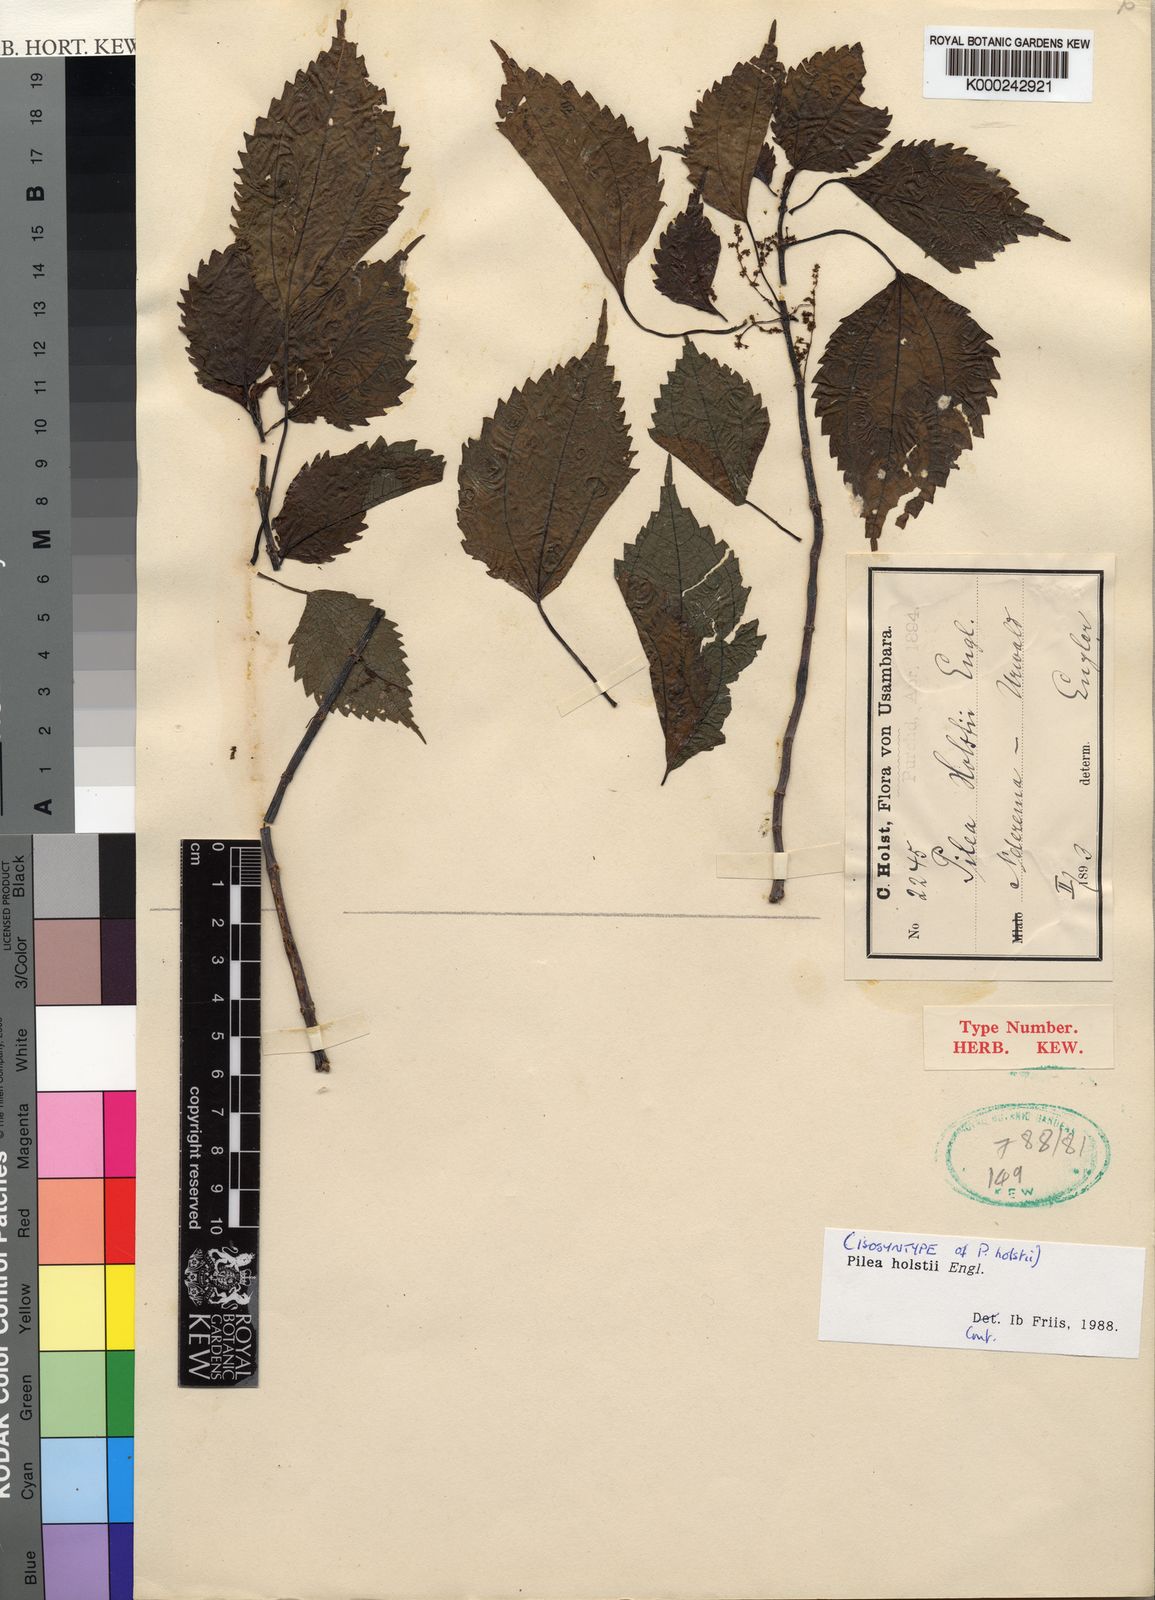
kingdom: Plantae
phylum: Tracheophyta
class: Magnoliopsida
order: Rosales
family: Urticaceae
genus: Pilea
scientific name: Pilea holstii
